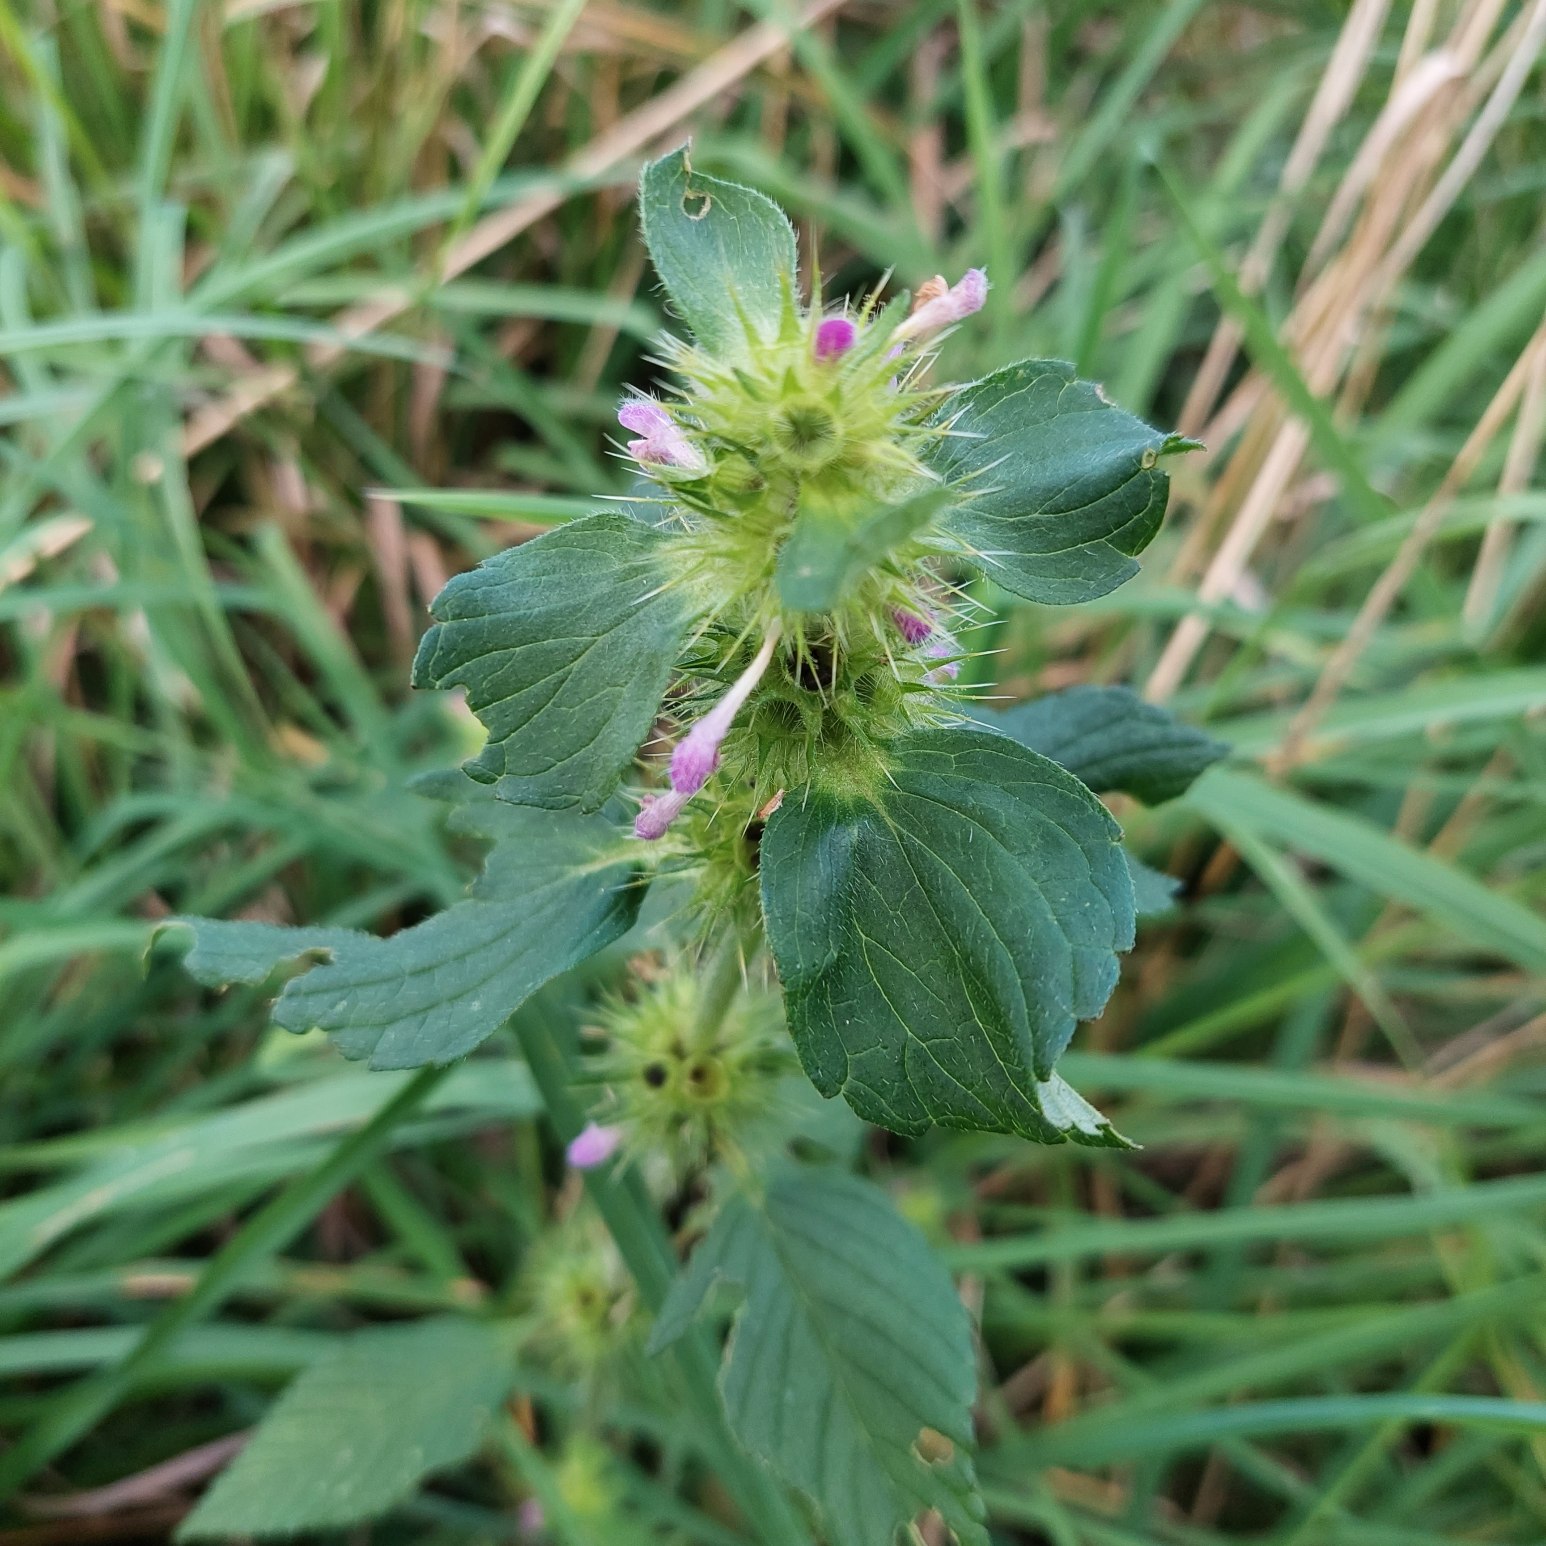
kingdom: Plantae
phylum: Tracheophyta
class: Magnoliopsida
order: Lamiales
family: Lamiaceae
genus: Galeopsis
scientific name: Galeopsis
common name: Hanekroslægten
